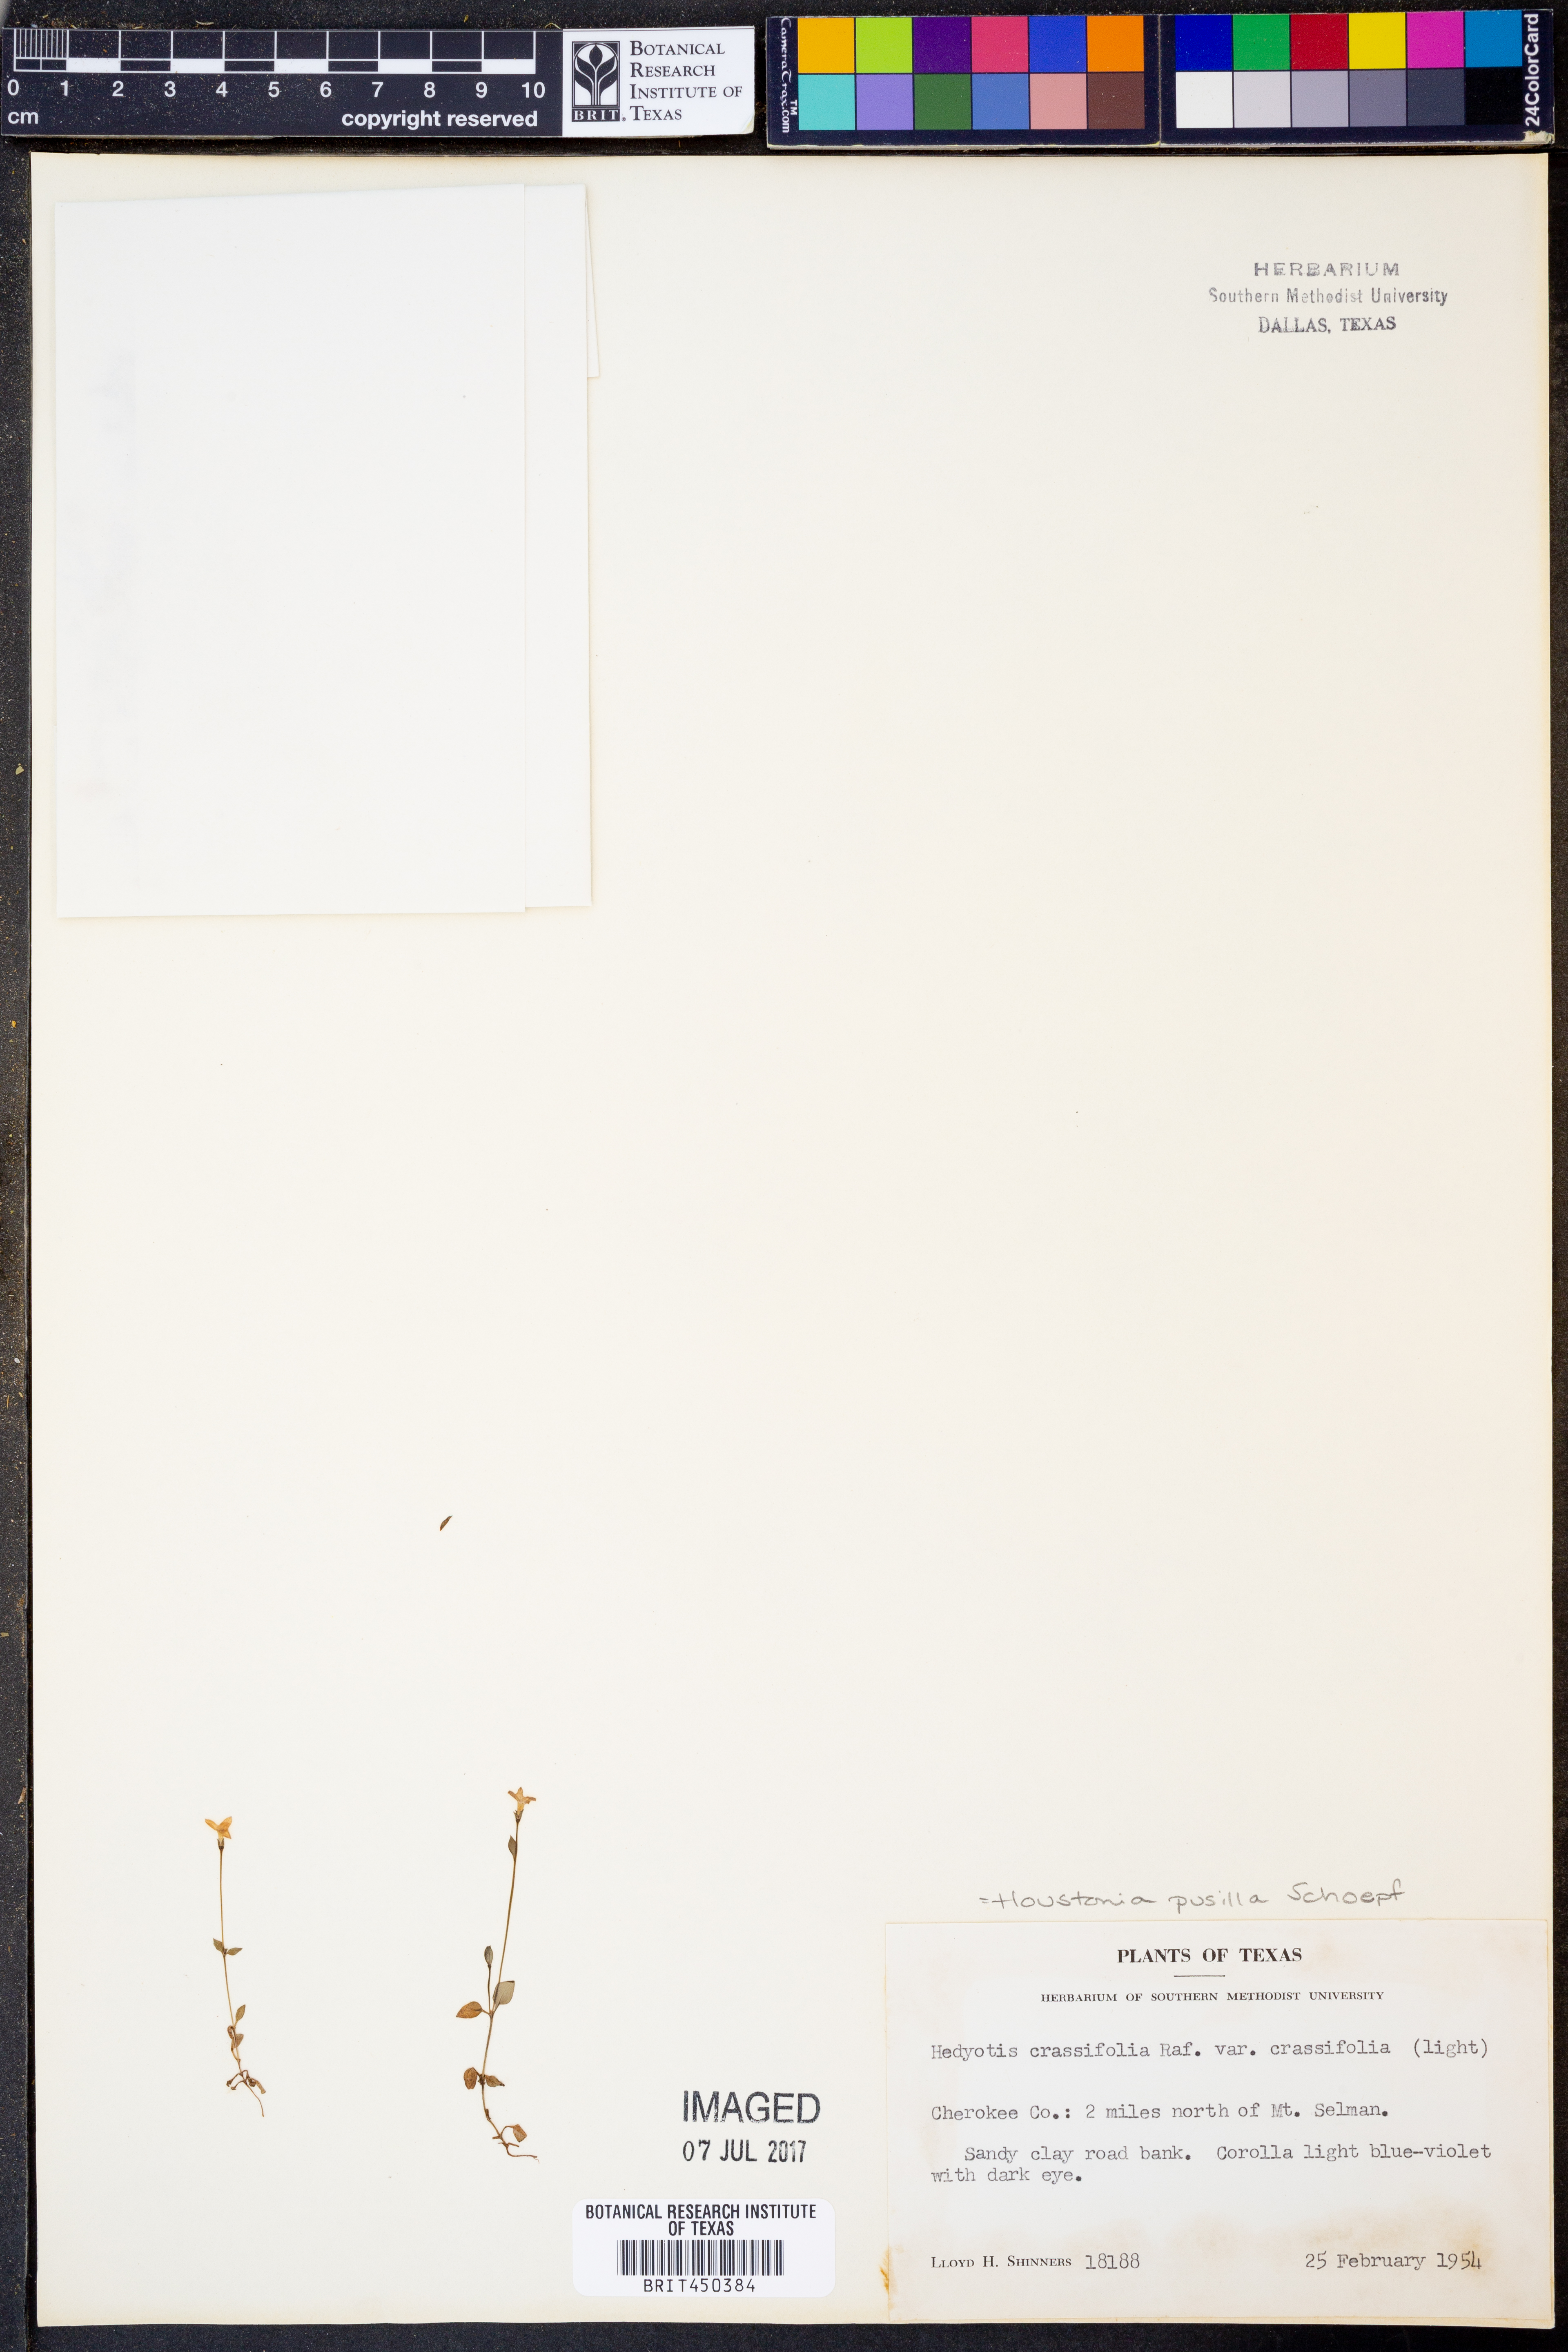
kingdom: Plantae
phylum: Tracheophyta
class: Magnoliopsida
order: Gentianales
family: Rubiaceae
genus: Houstonia
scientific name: Houstonia pusilla
